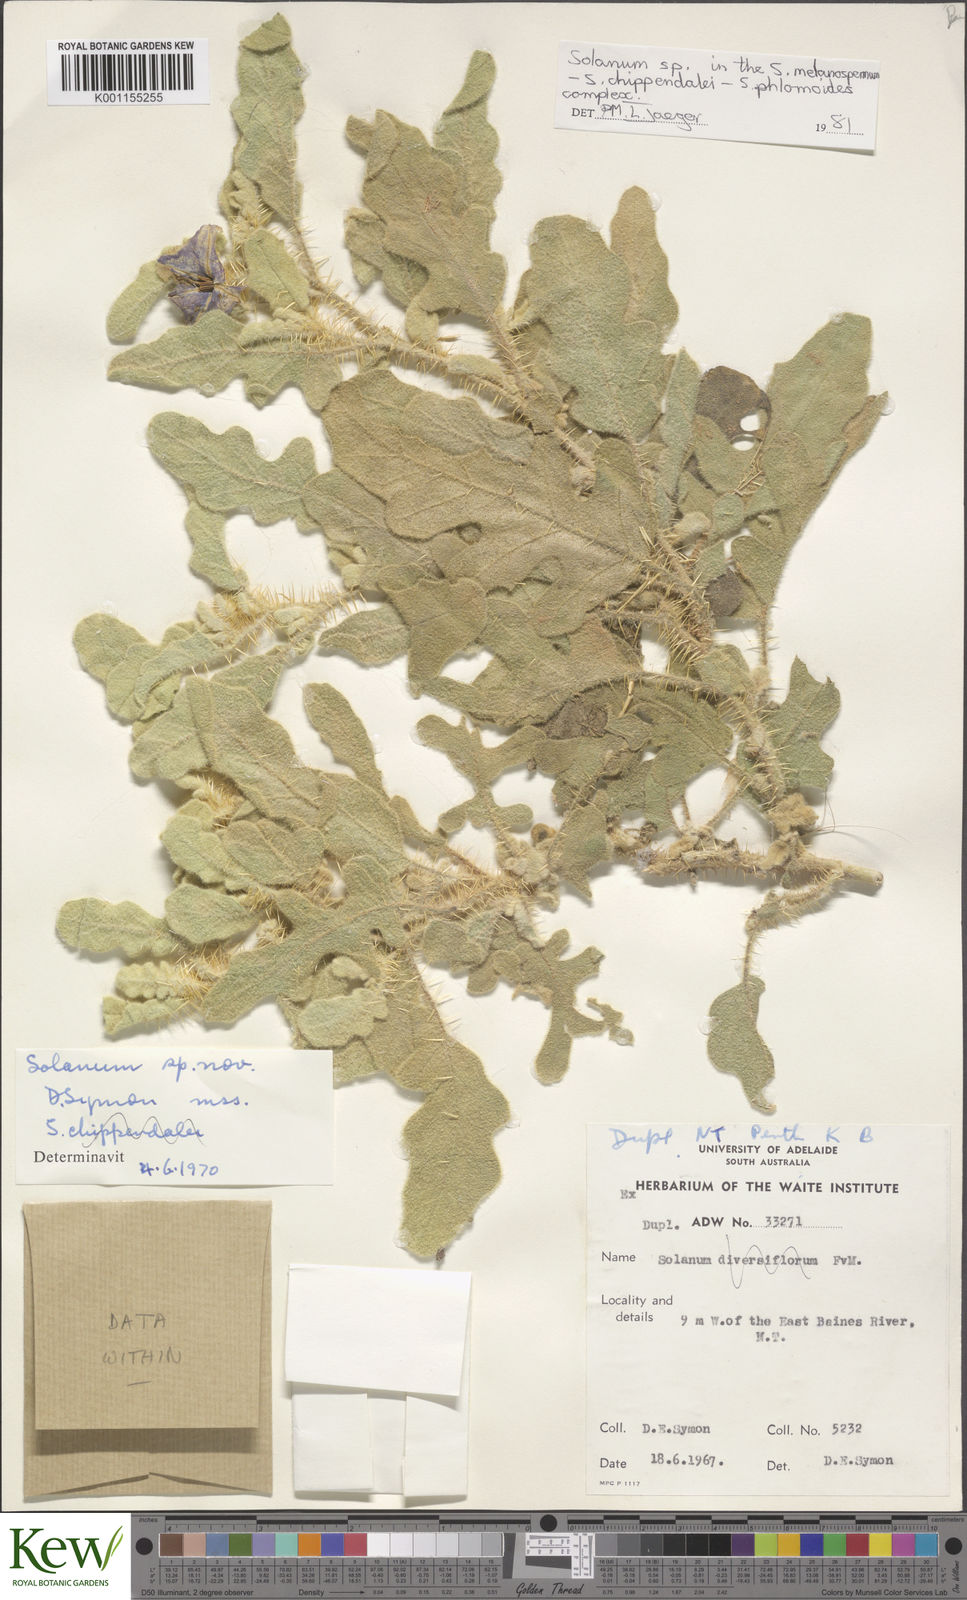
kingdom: Plantae
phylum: Tracheophyta
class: Magnoliopsida
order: Solanales
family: Solanaceae
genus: Solanum
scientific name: Solanum
